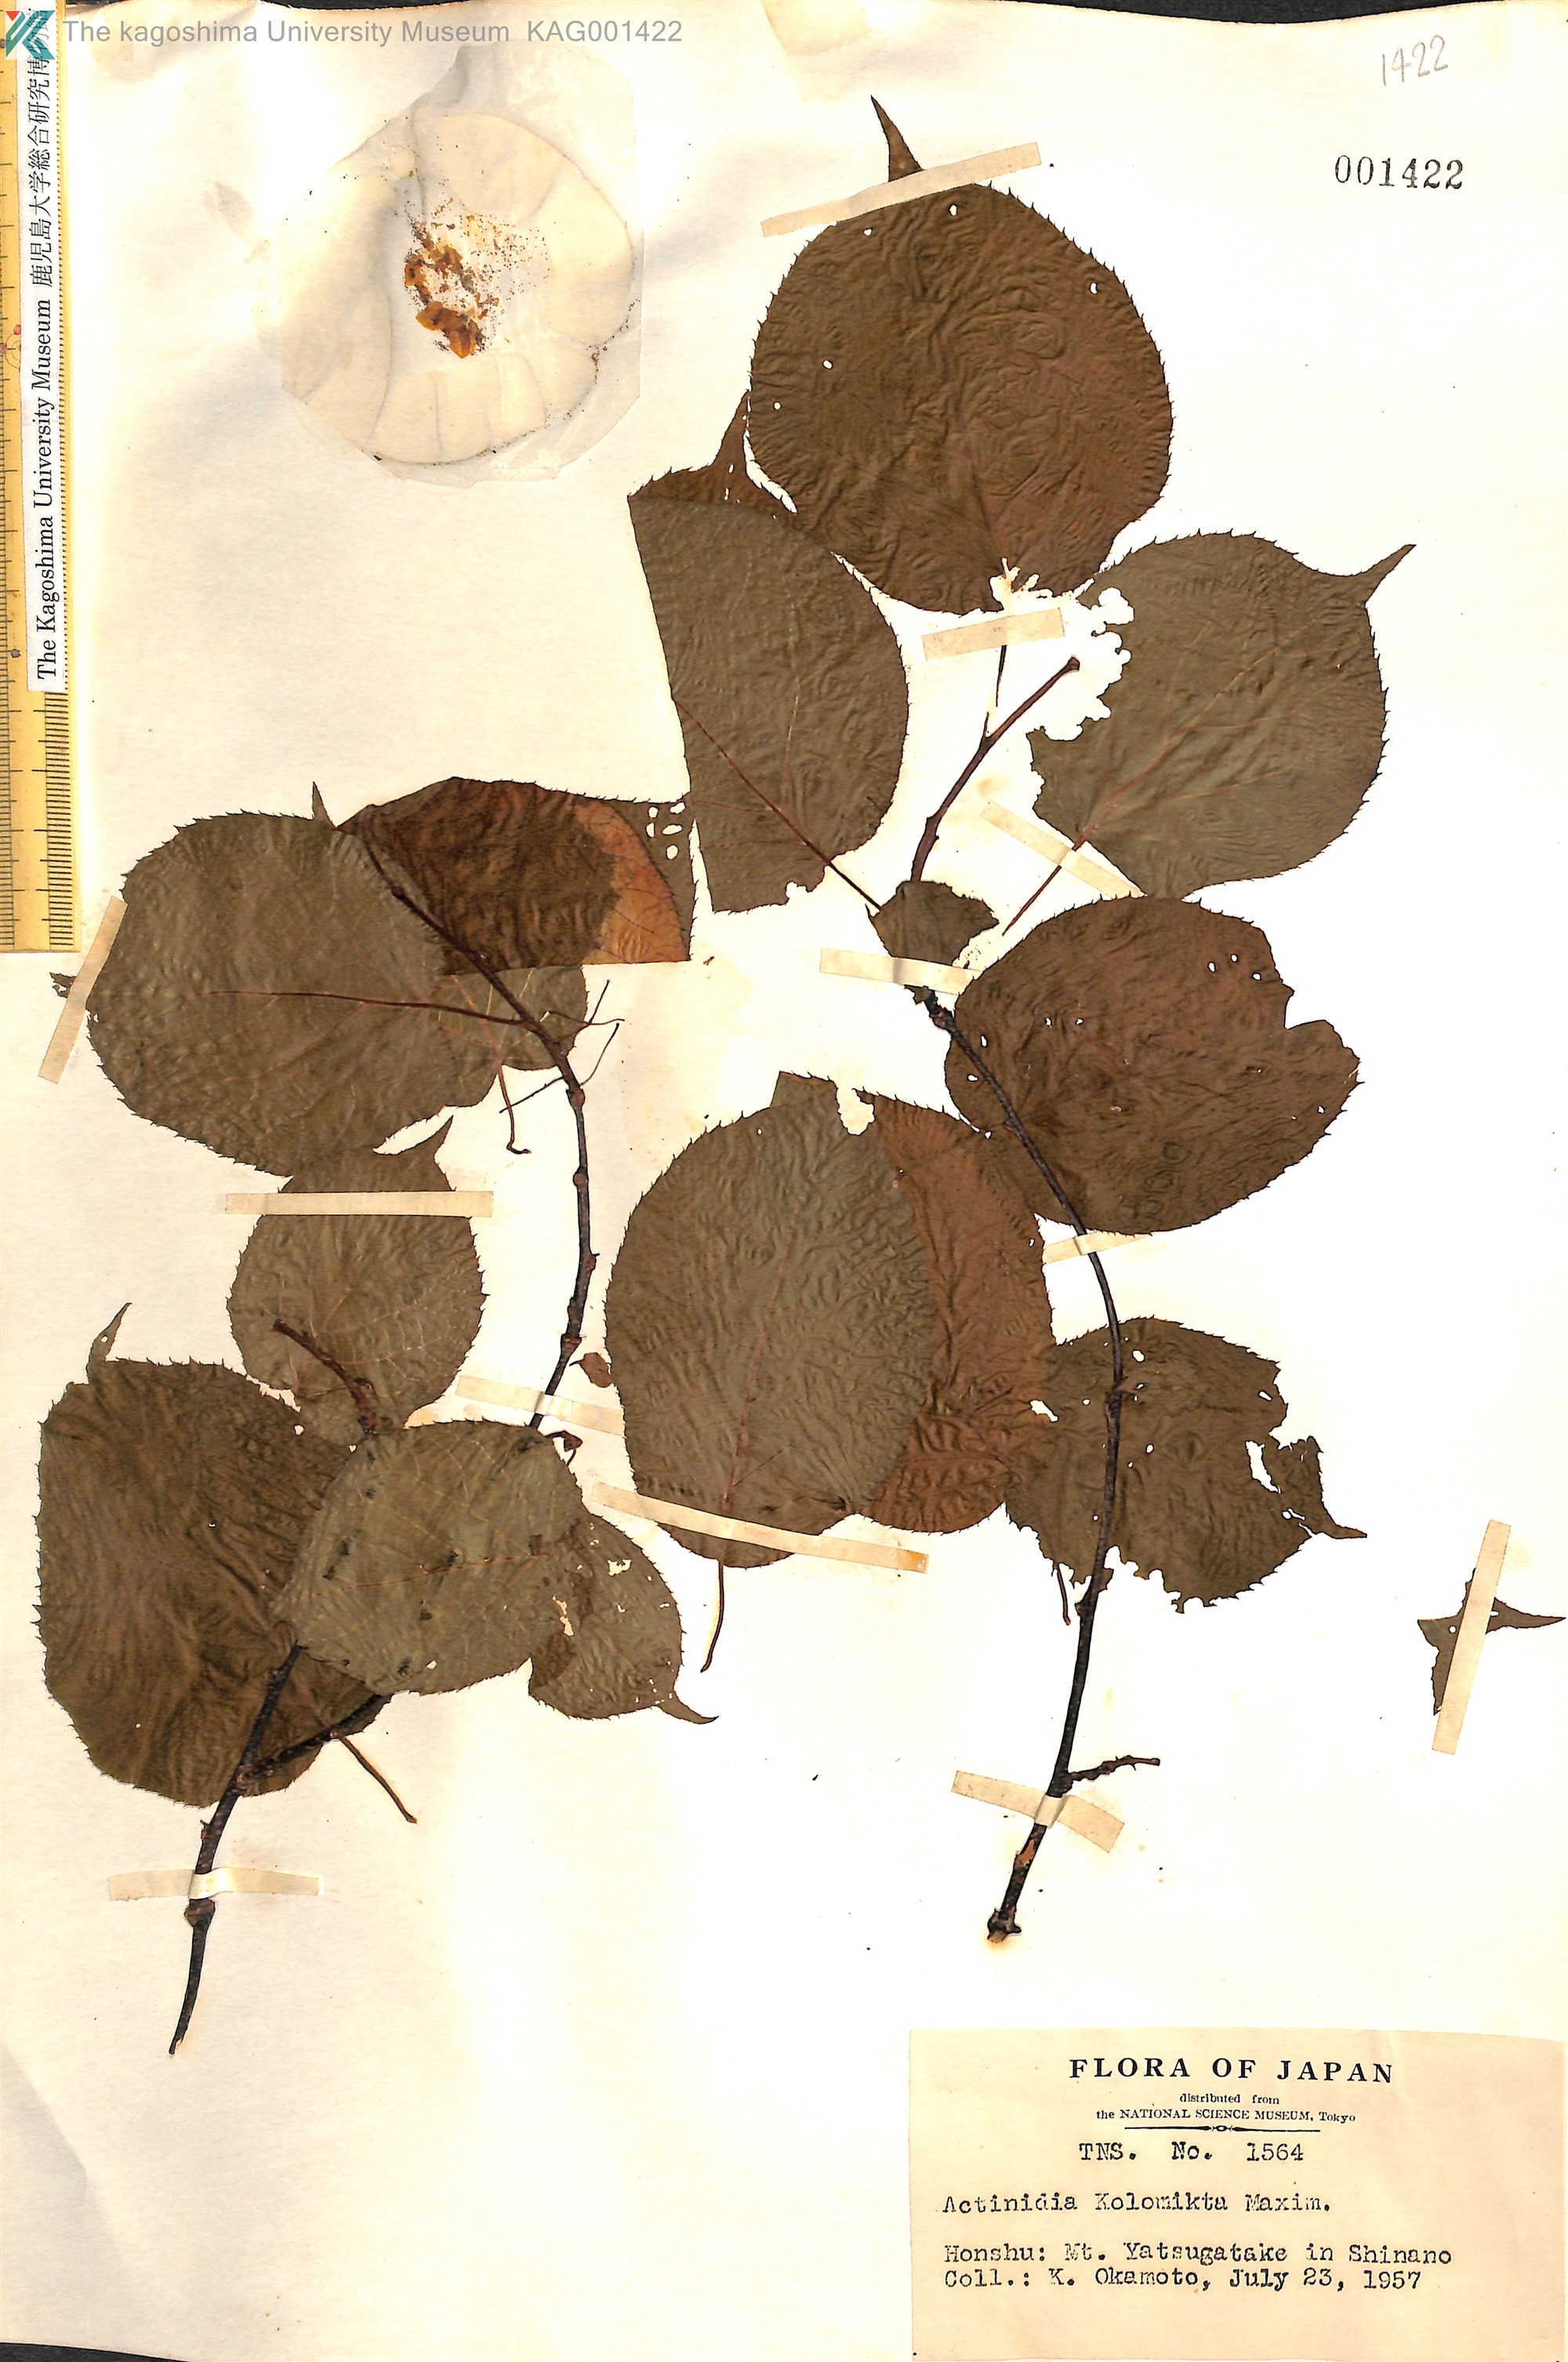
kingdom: Plantae
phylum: Tracheophyta
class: Magnoliopsida
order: Ericales
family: Actinidiaceae
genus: Actinidia
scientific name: Actinidia kolomikta
